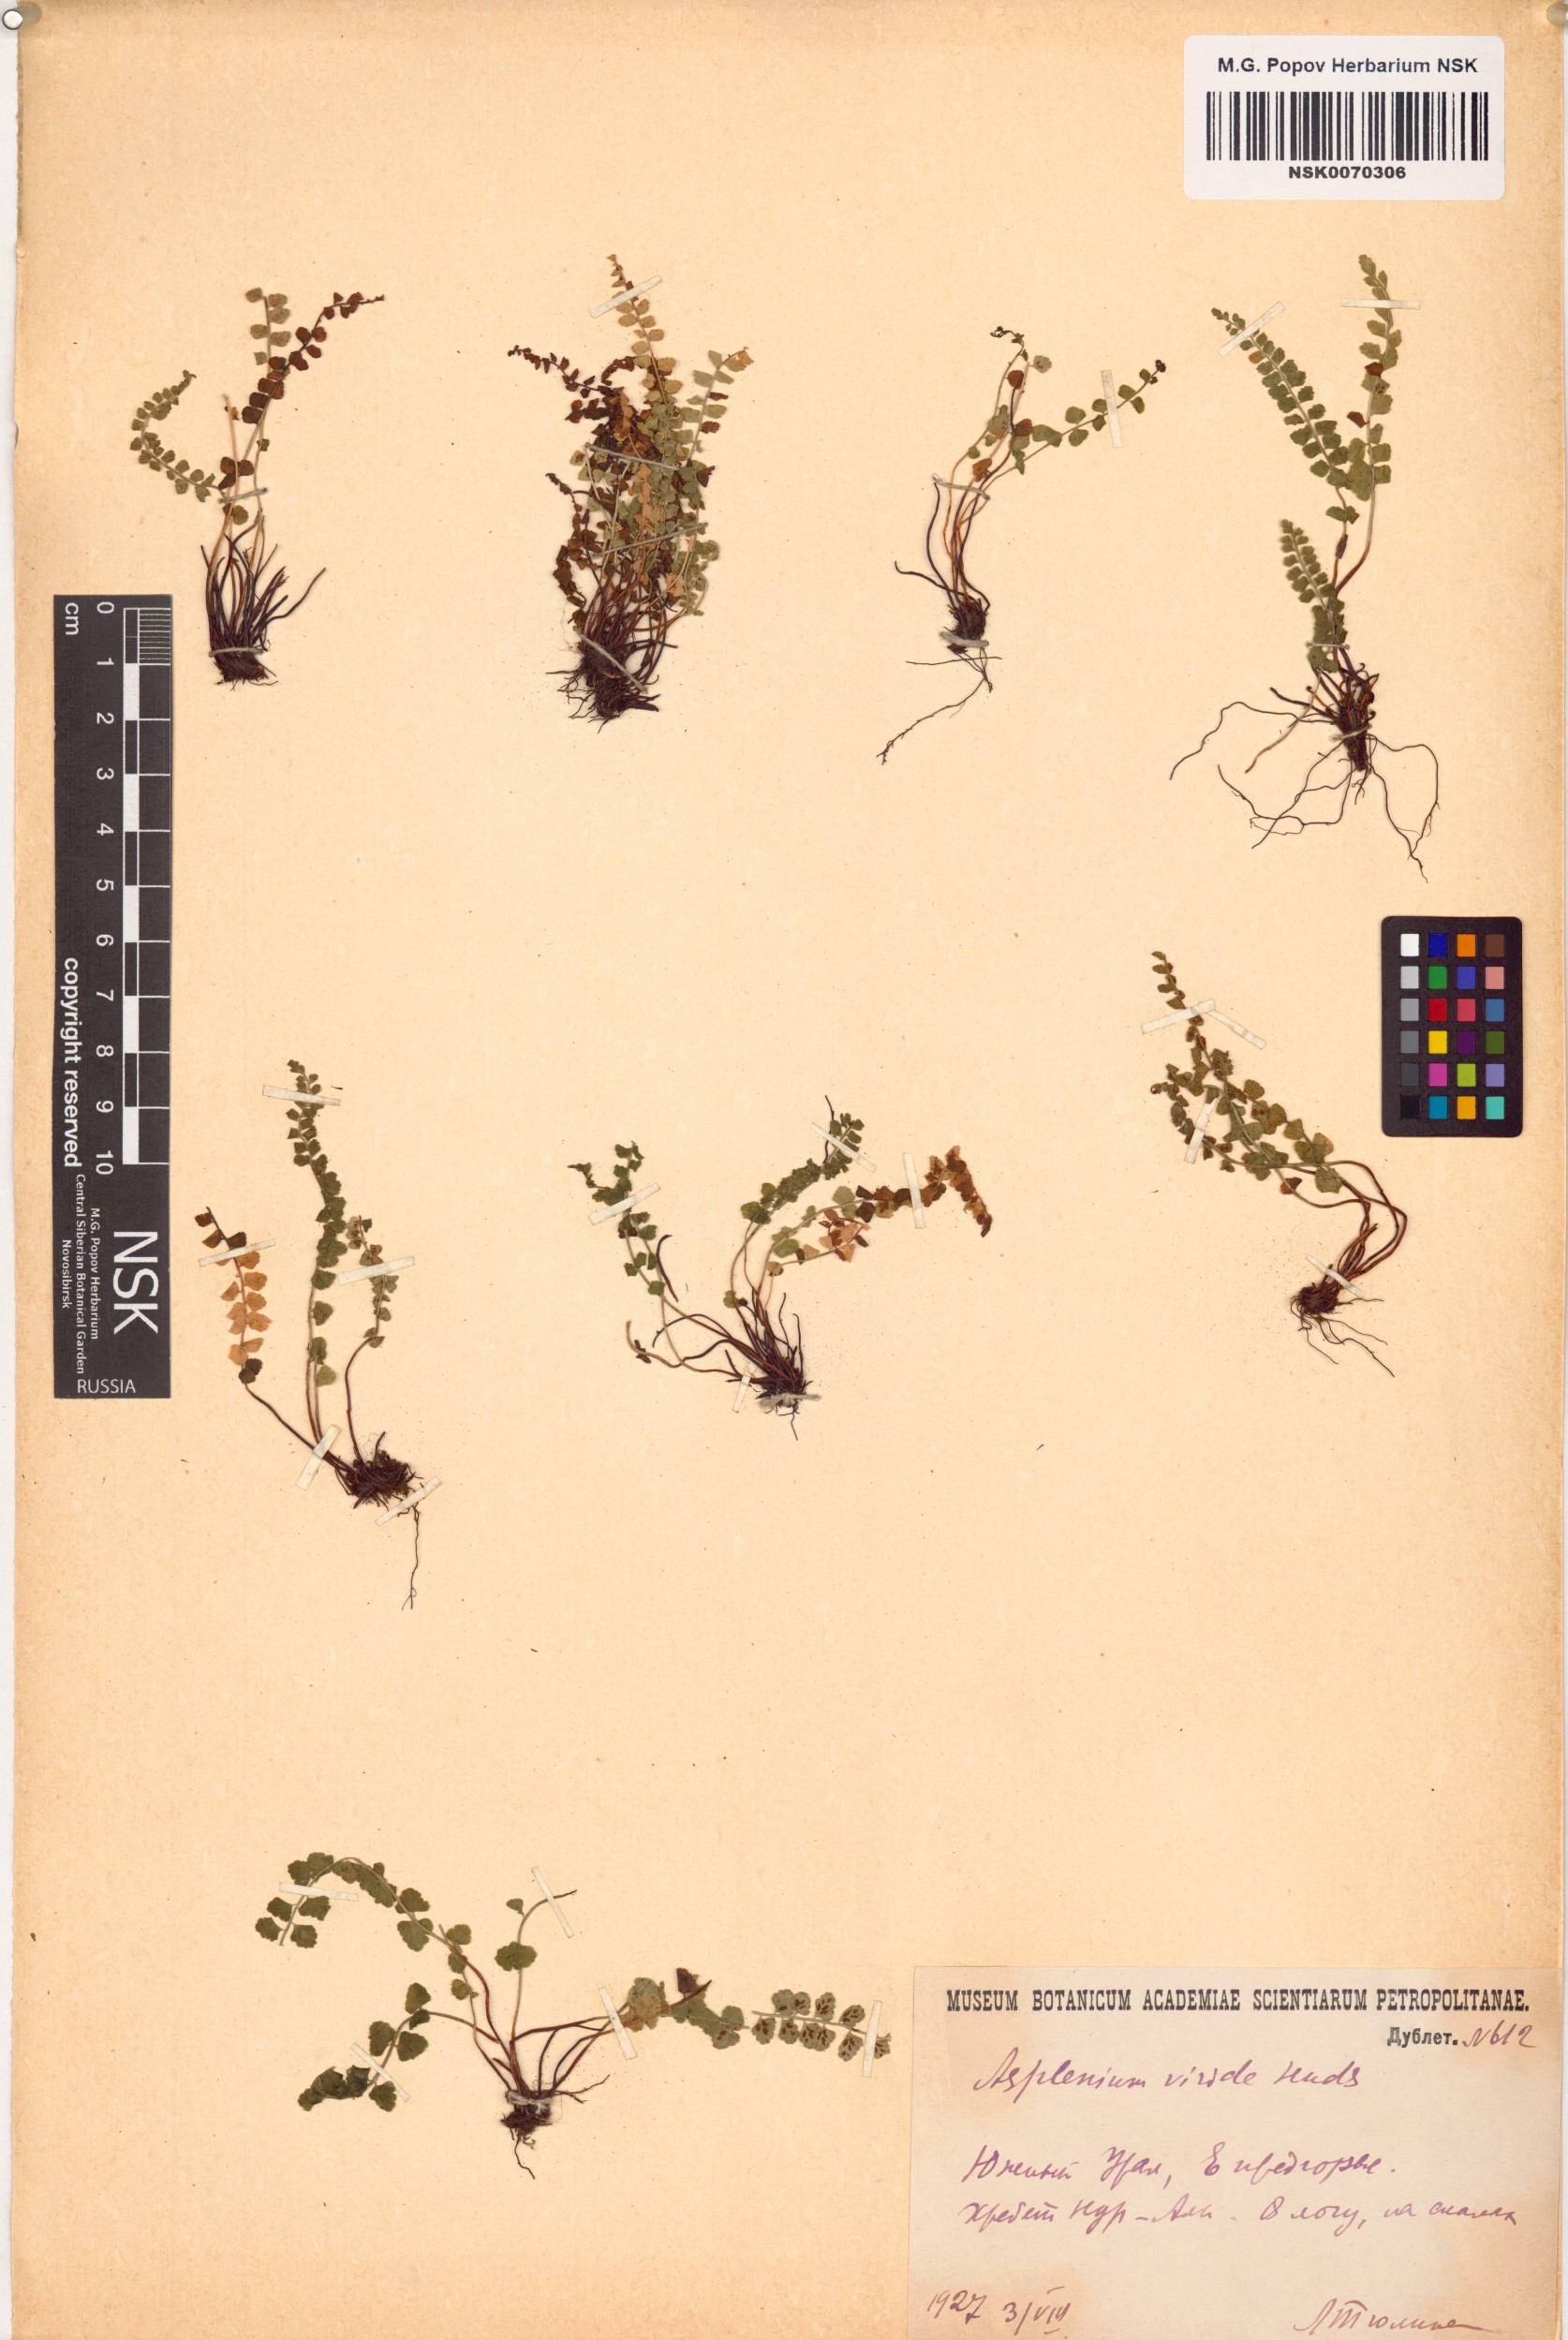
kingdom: Plantae
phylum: Tracheophyta
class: Polypodiopsida
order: Polypodiales
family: Aspleniaceae
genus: Asplenium
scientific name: Asplenium viride
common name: Green spleenwort
